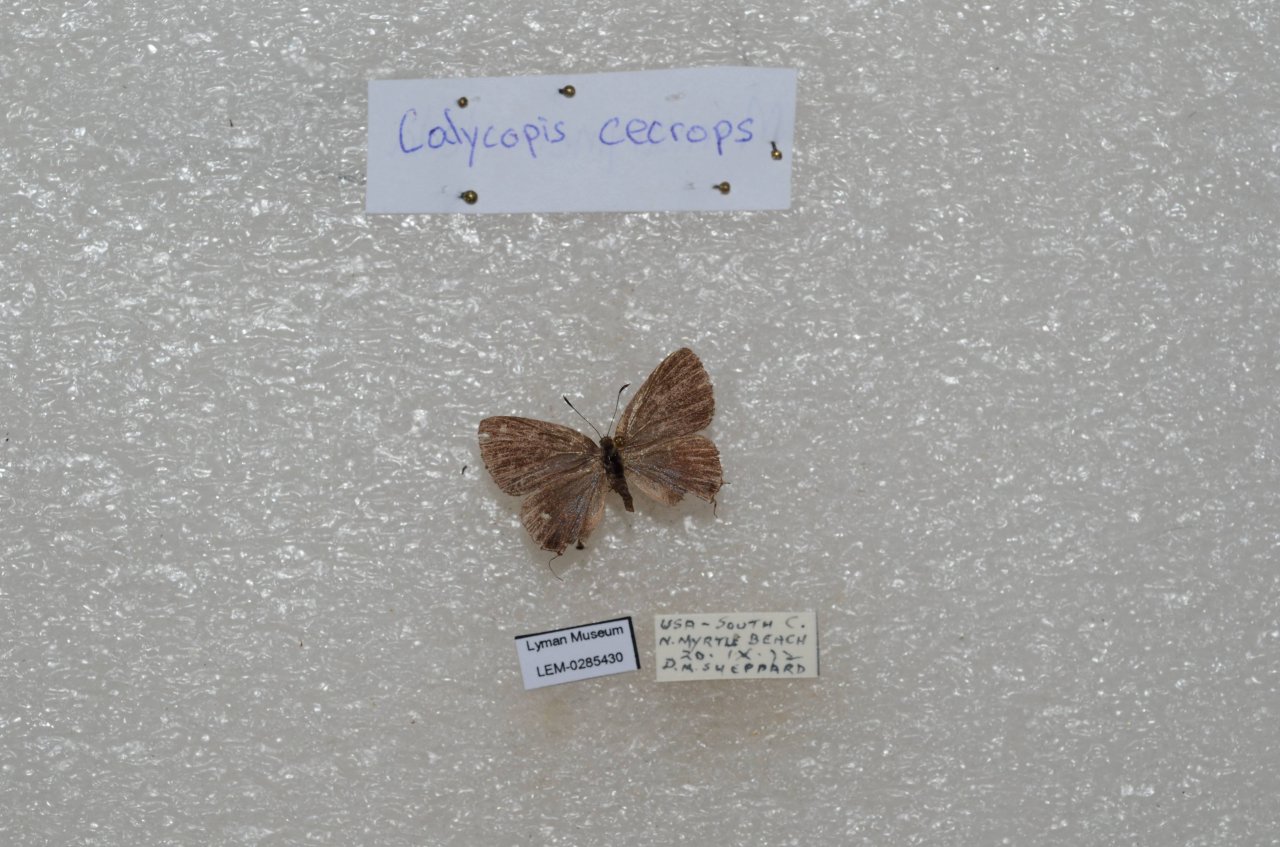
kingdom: Animalia
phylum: Arthropoda
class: Insecta
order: Lepidoptera
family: Lycaenidae
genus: Calycopis
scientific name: Calycopis cecrops
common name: Red-banded Hairstreak
